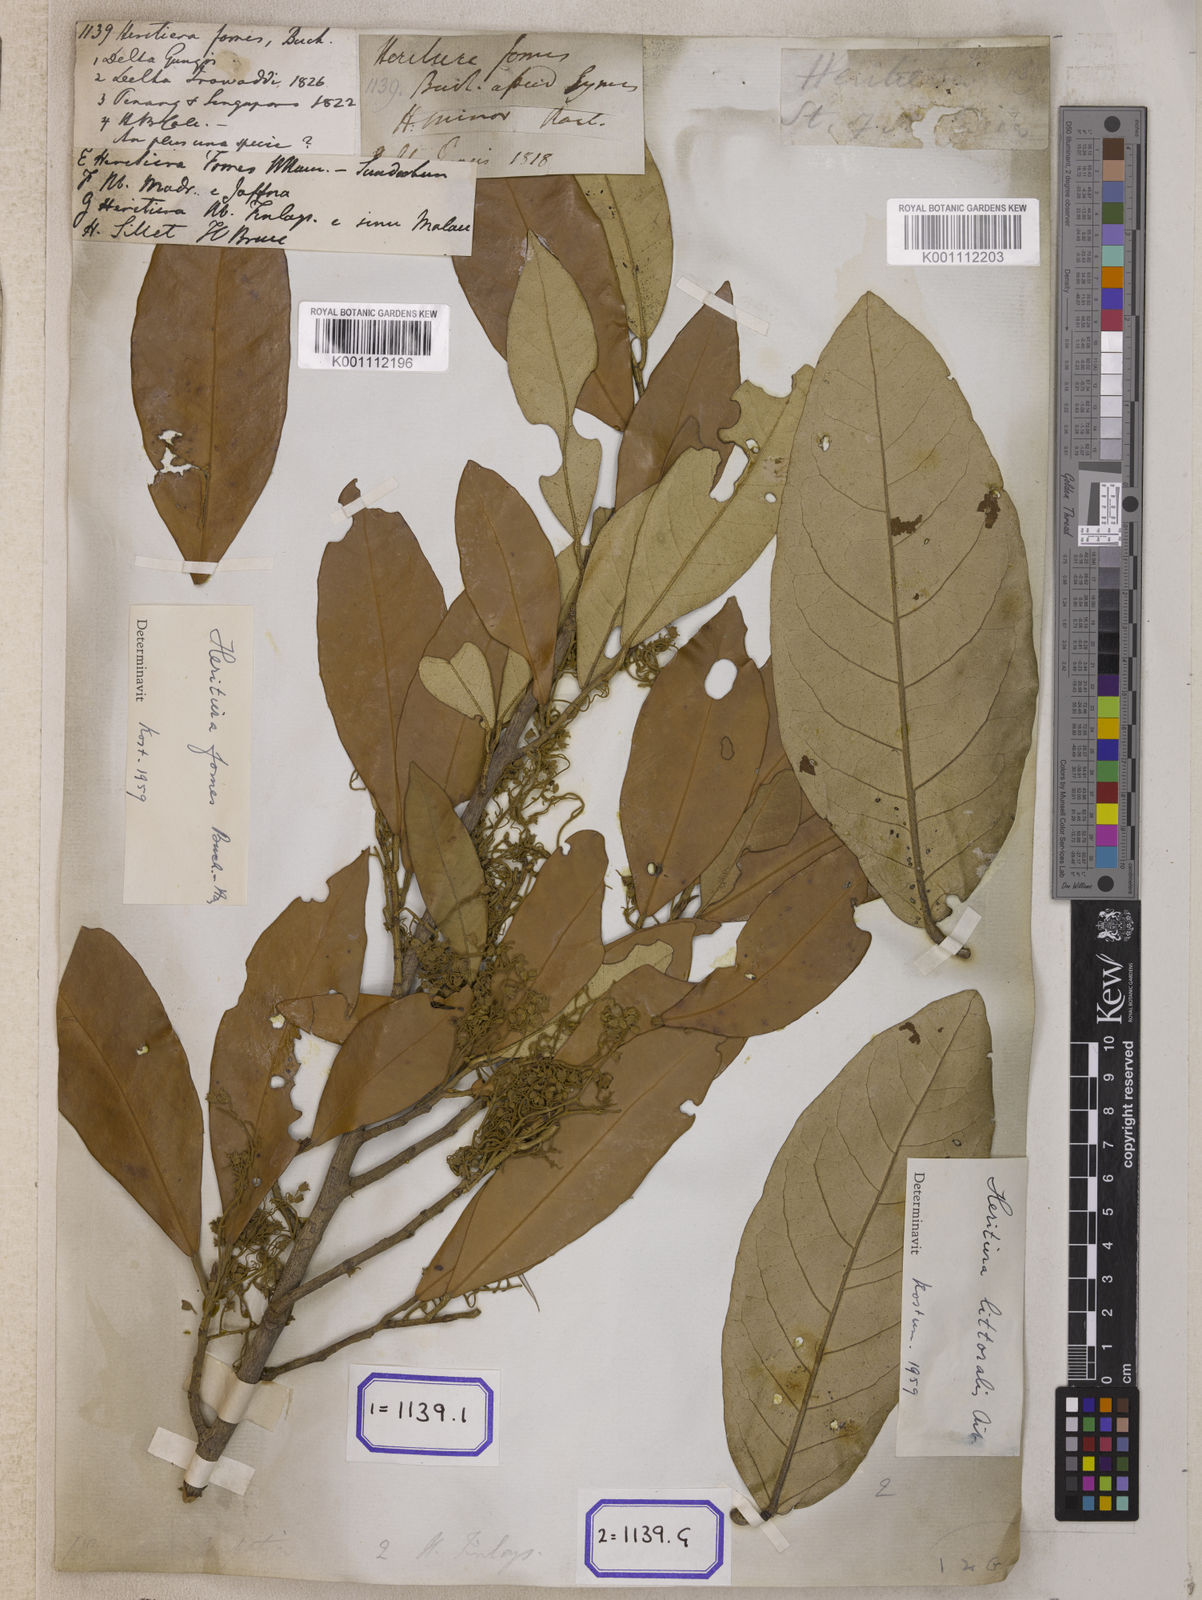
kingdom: Plantae
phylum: Tracheophyta
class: Magnoliopsida
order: Malvales
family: Malvaceae
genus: Heritiera
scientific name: Heritiera
